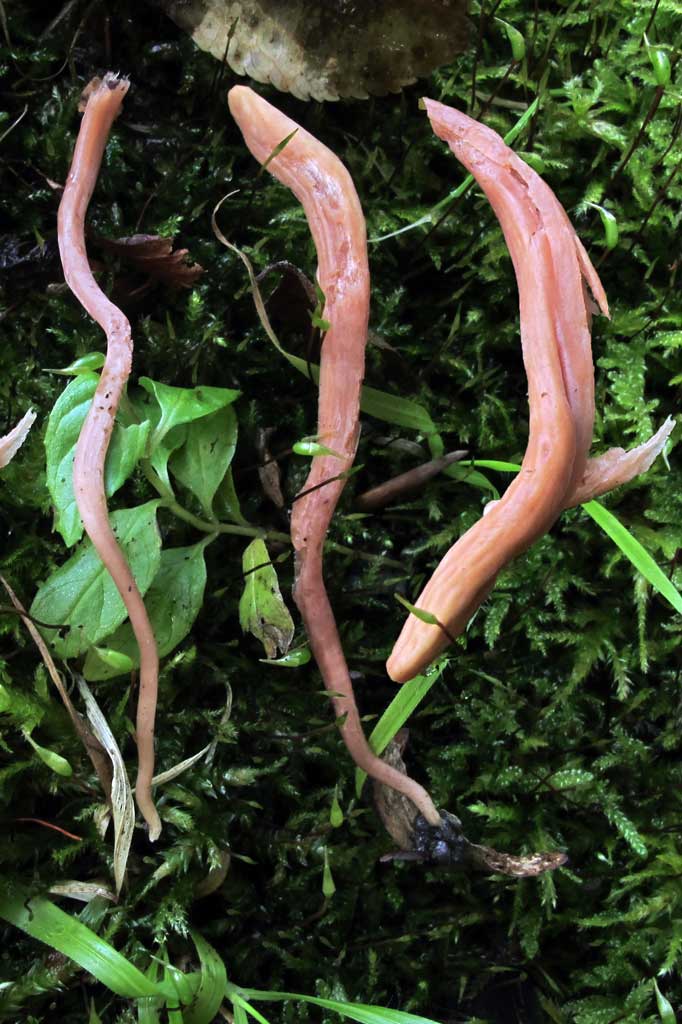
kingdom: Fungi
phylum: Basidiomycota
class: Agaricomycetes
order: Agaricales
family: Clavariaceae
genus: Clavaria
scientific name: Clavaria incarnata
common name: kødrød køllesvamp
